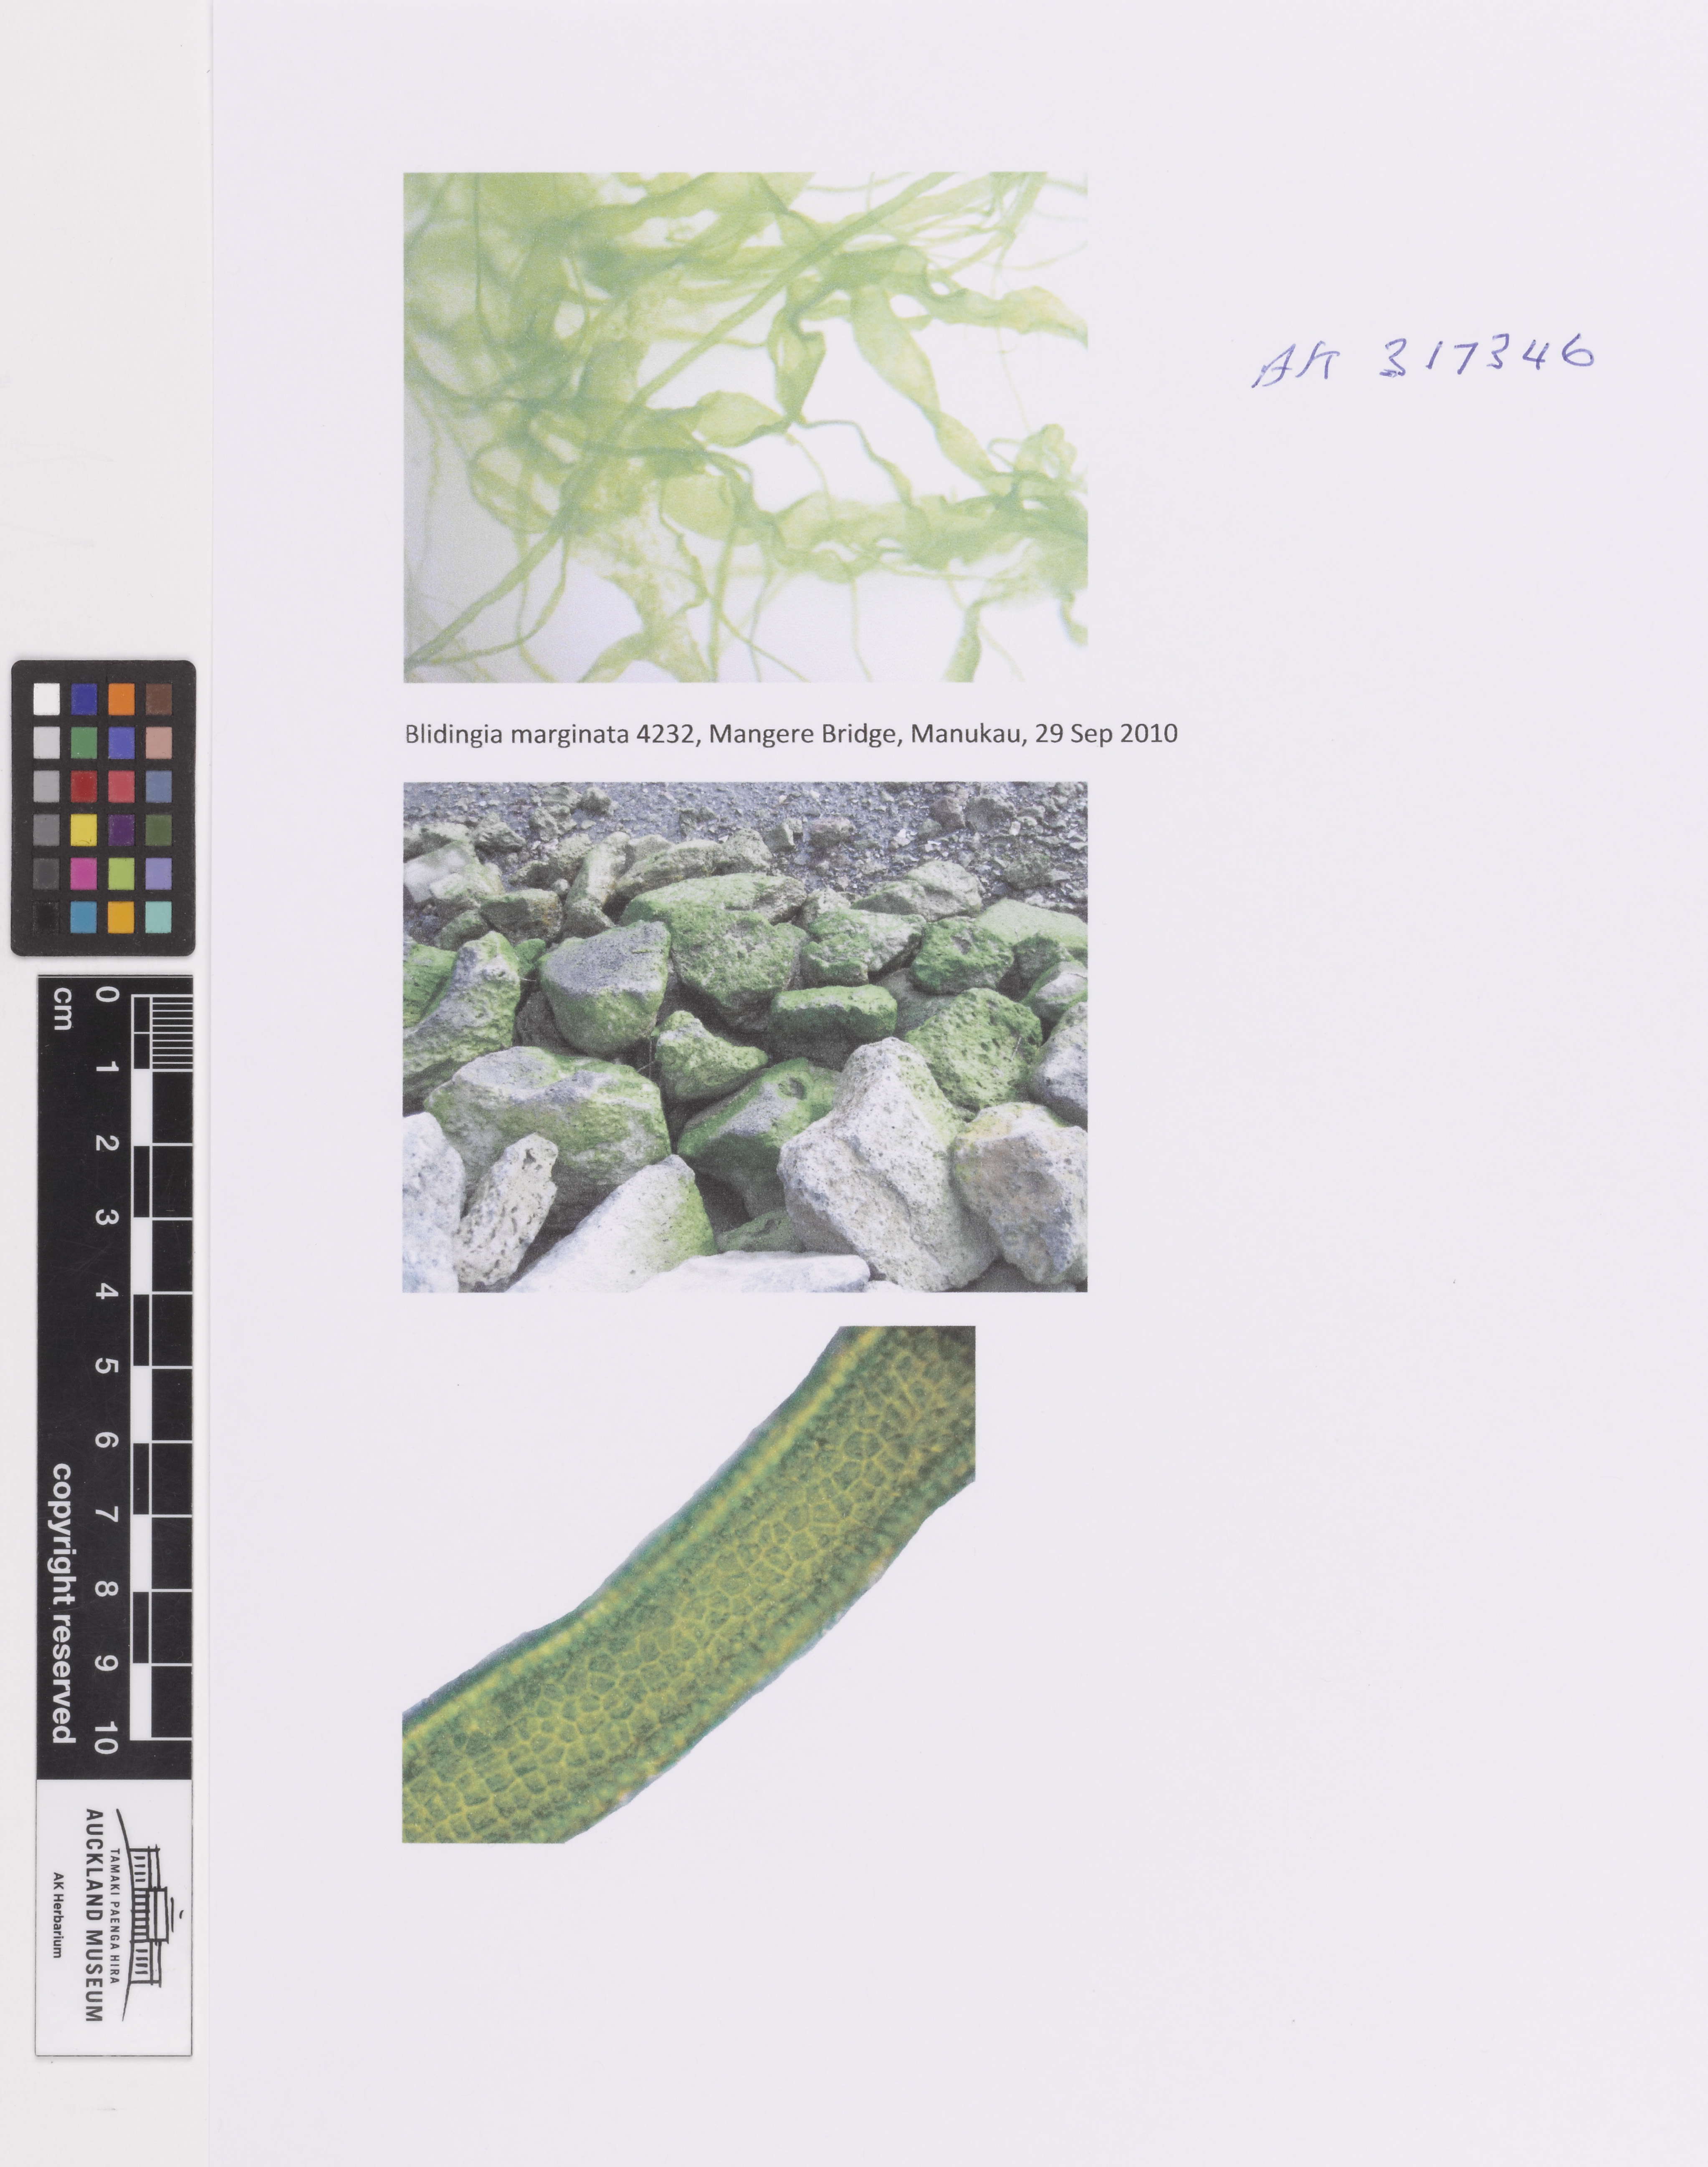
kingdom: Plantae
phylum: Chlorophyta
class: Ulvophyceae
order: Ulvales
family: Ulvaceae
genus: Ulva
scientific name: Ulva compressa
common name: Thread weed
